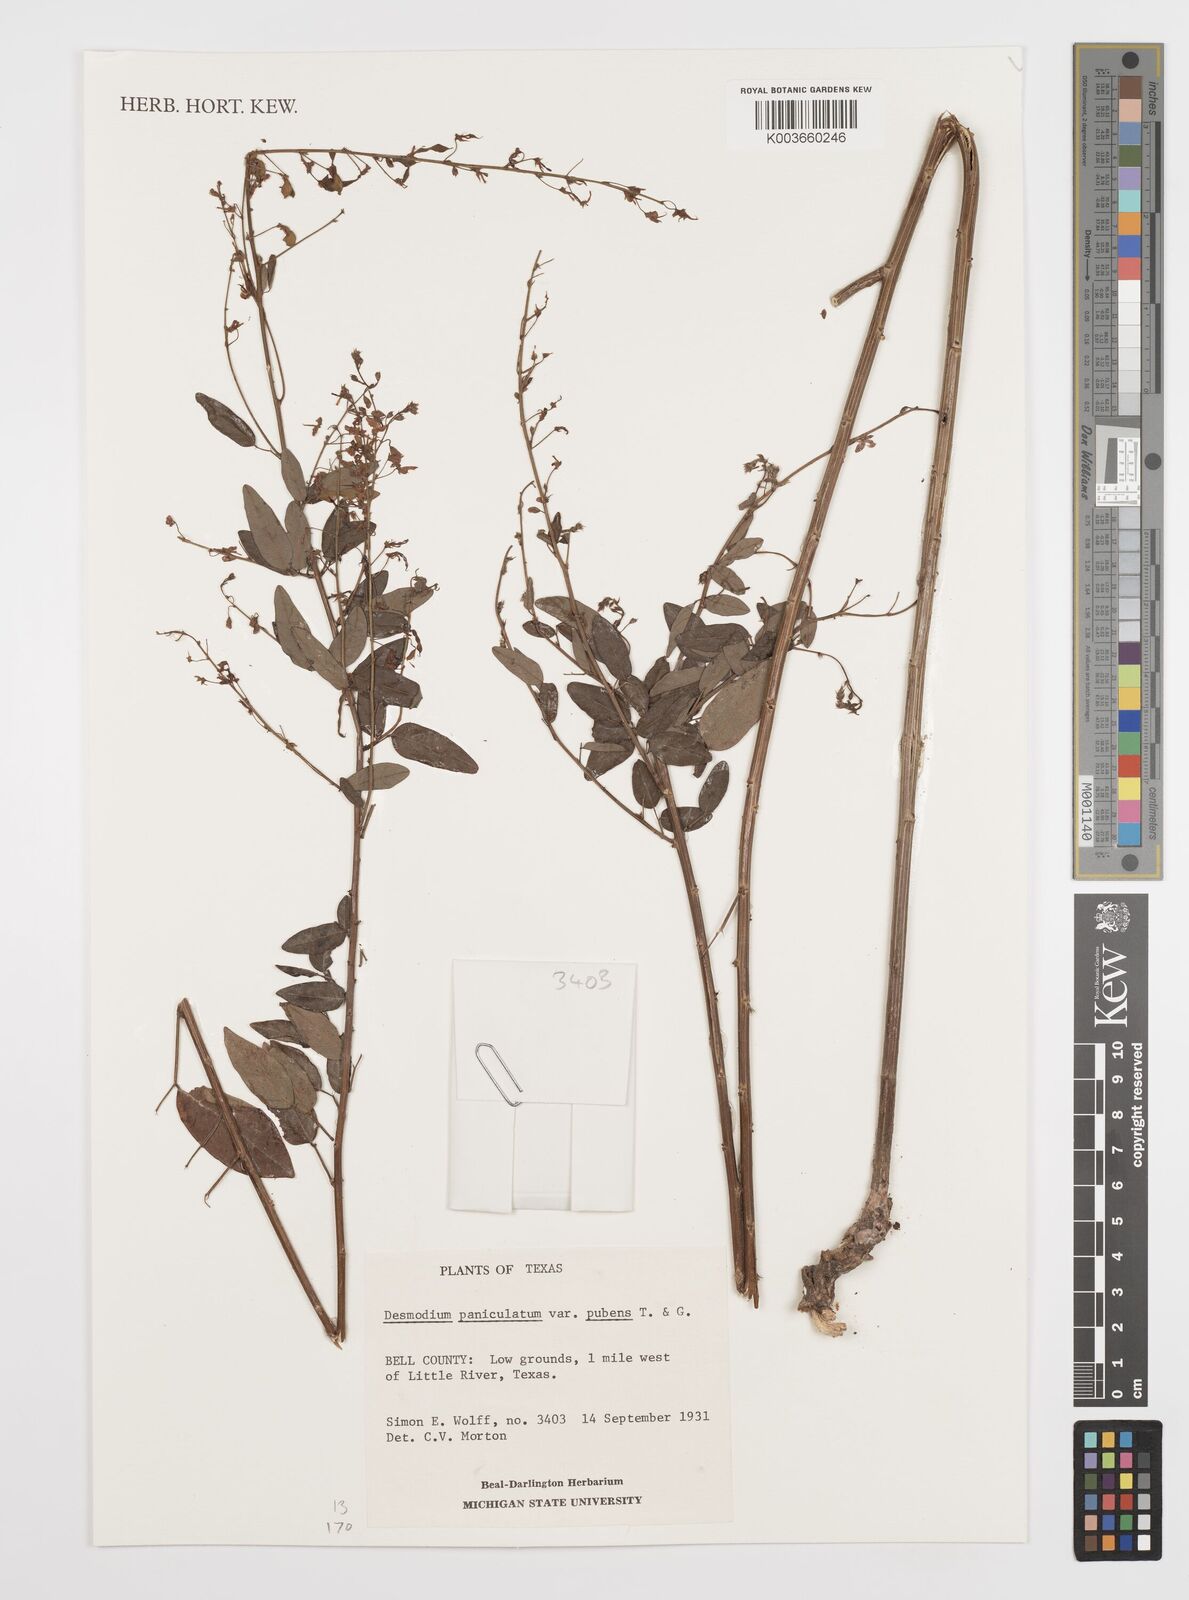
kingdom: Plantae
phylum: Tracheophyta
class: Magnoliopsida
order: Fabales
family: Fabaceae
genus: Desmodium
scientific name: Desmodium paniculatum
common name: Panicled tick-clover
